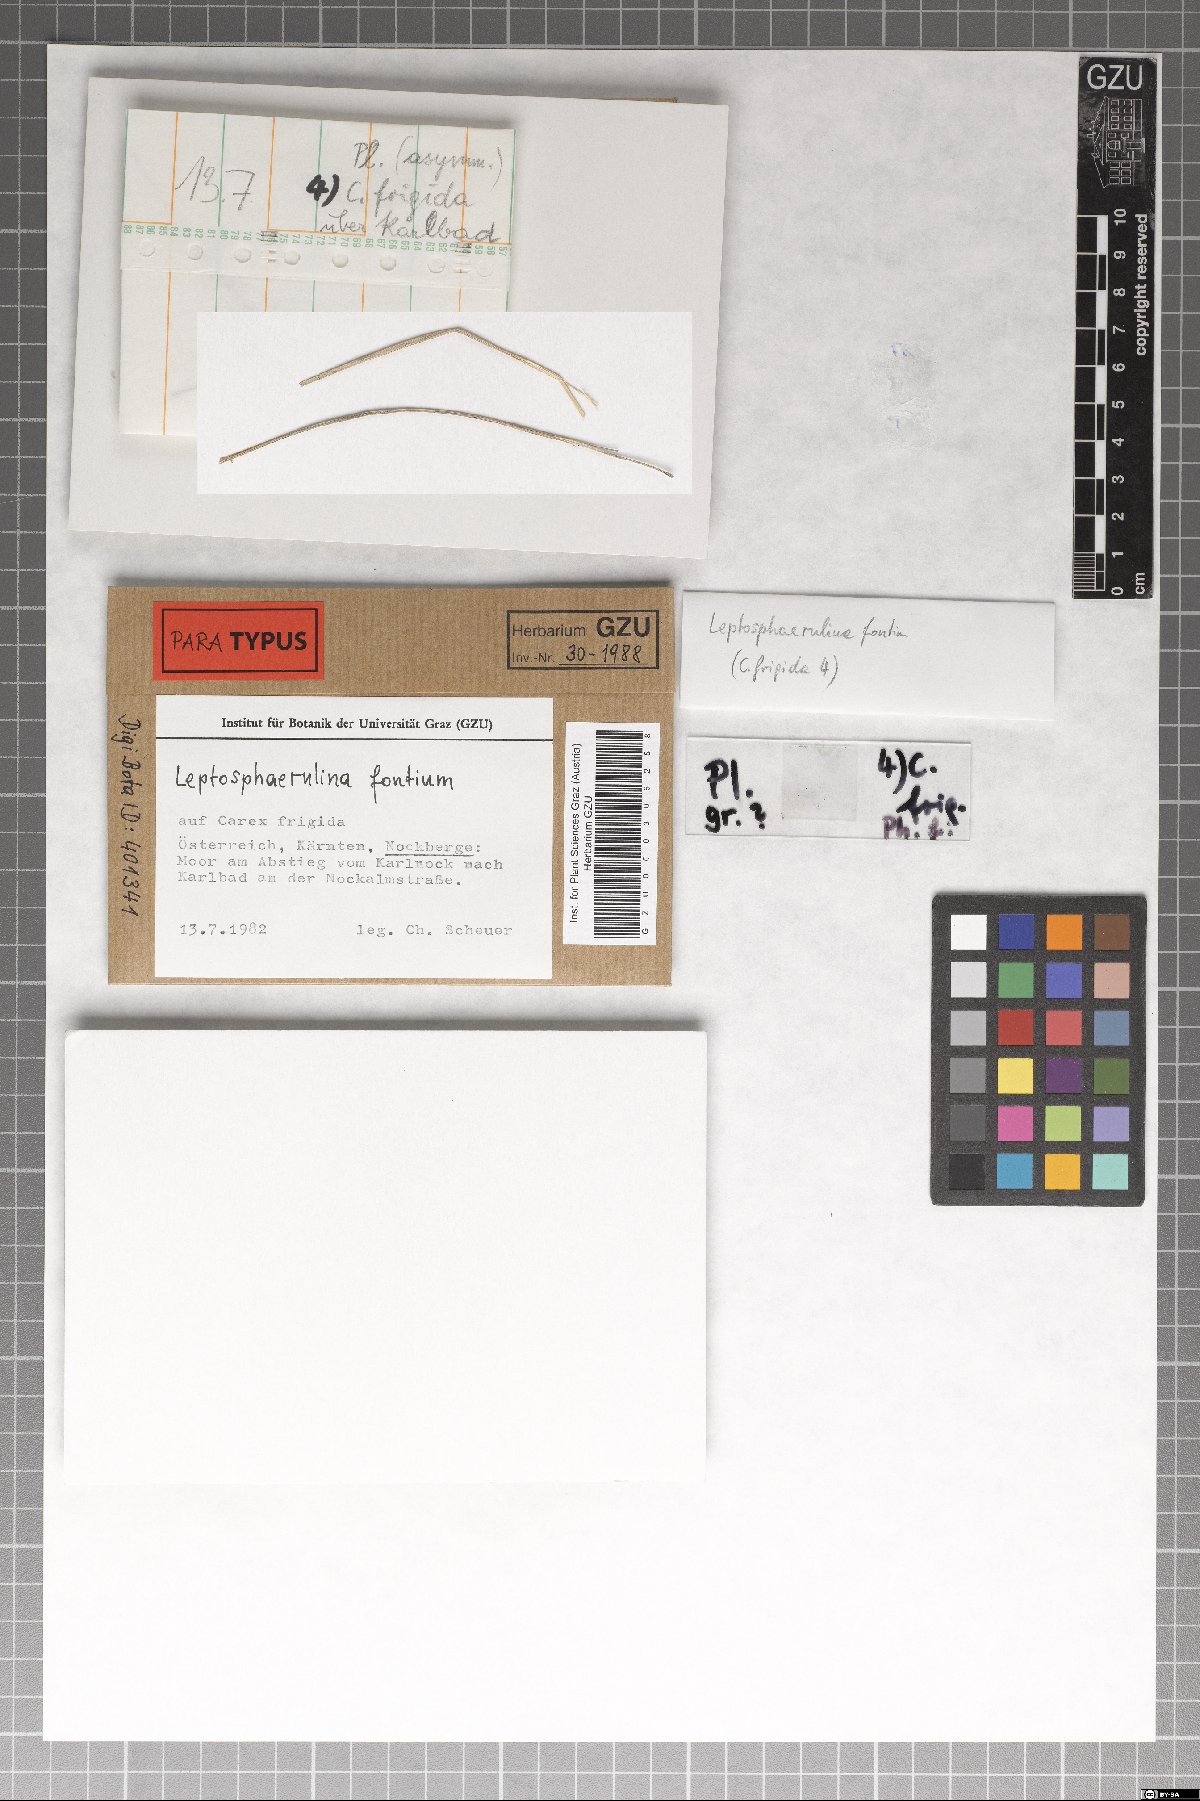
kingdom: Fungi
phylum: Ascomycota
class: Dothideomycetes
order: Pleosporales
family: Didymellaceae
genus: Leptosphaerulina
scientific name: Leptosphaerulina fontium
